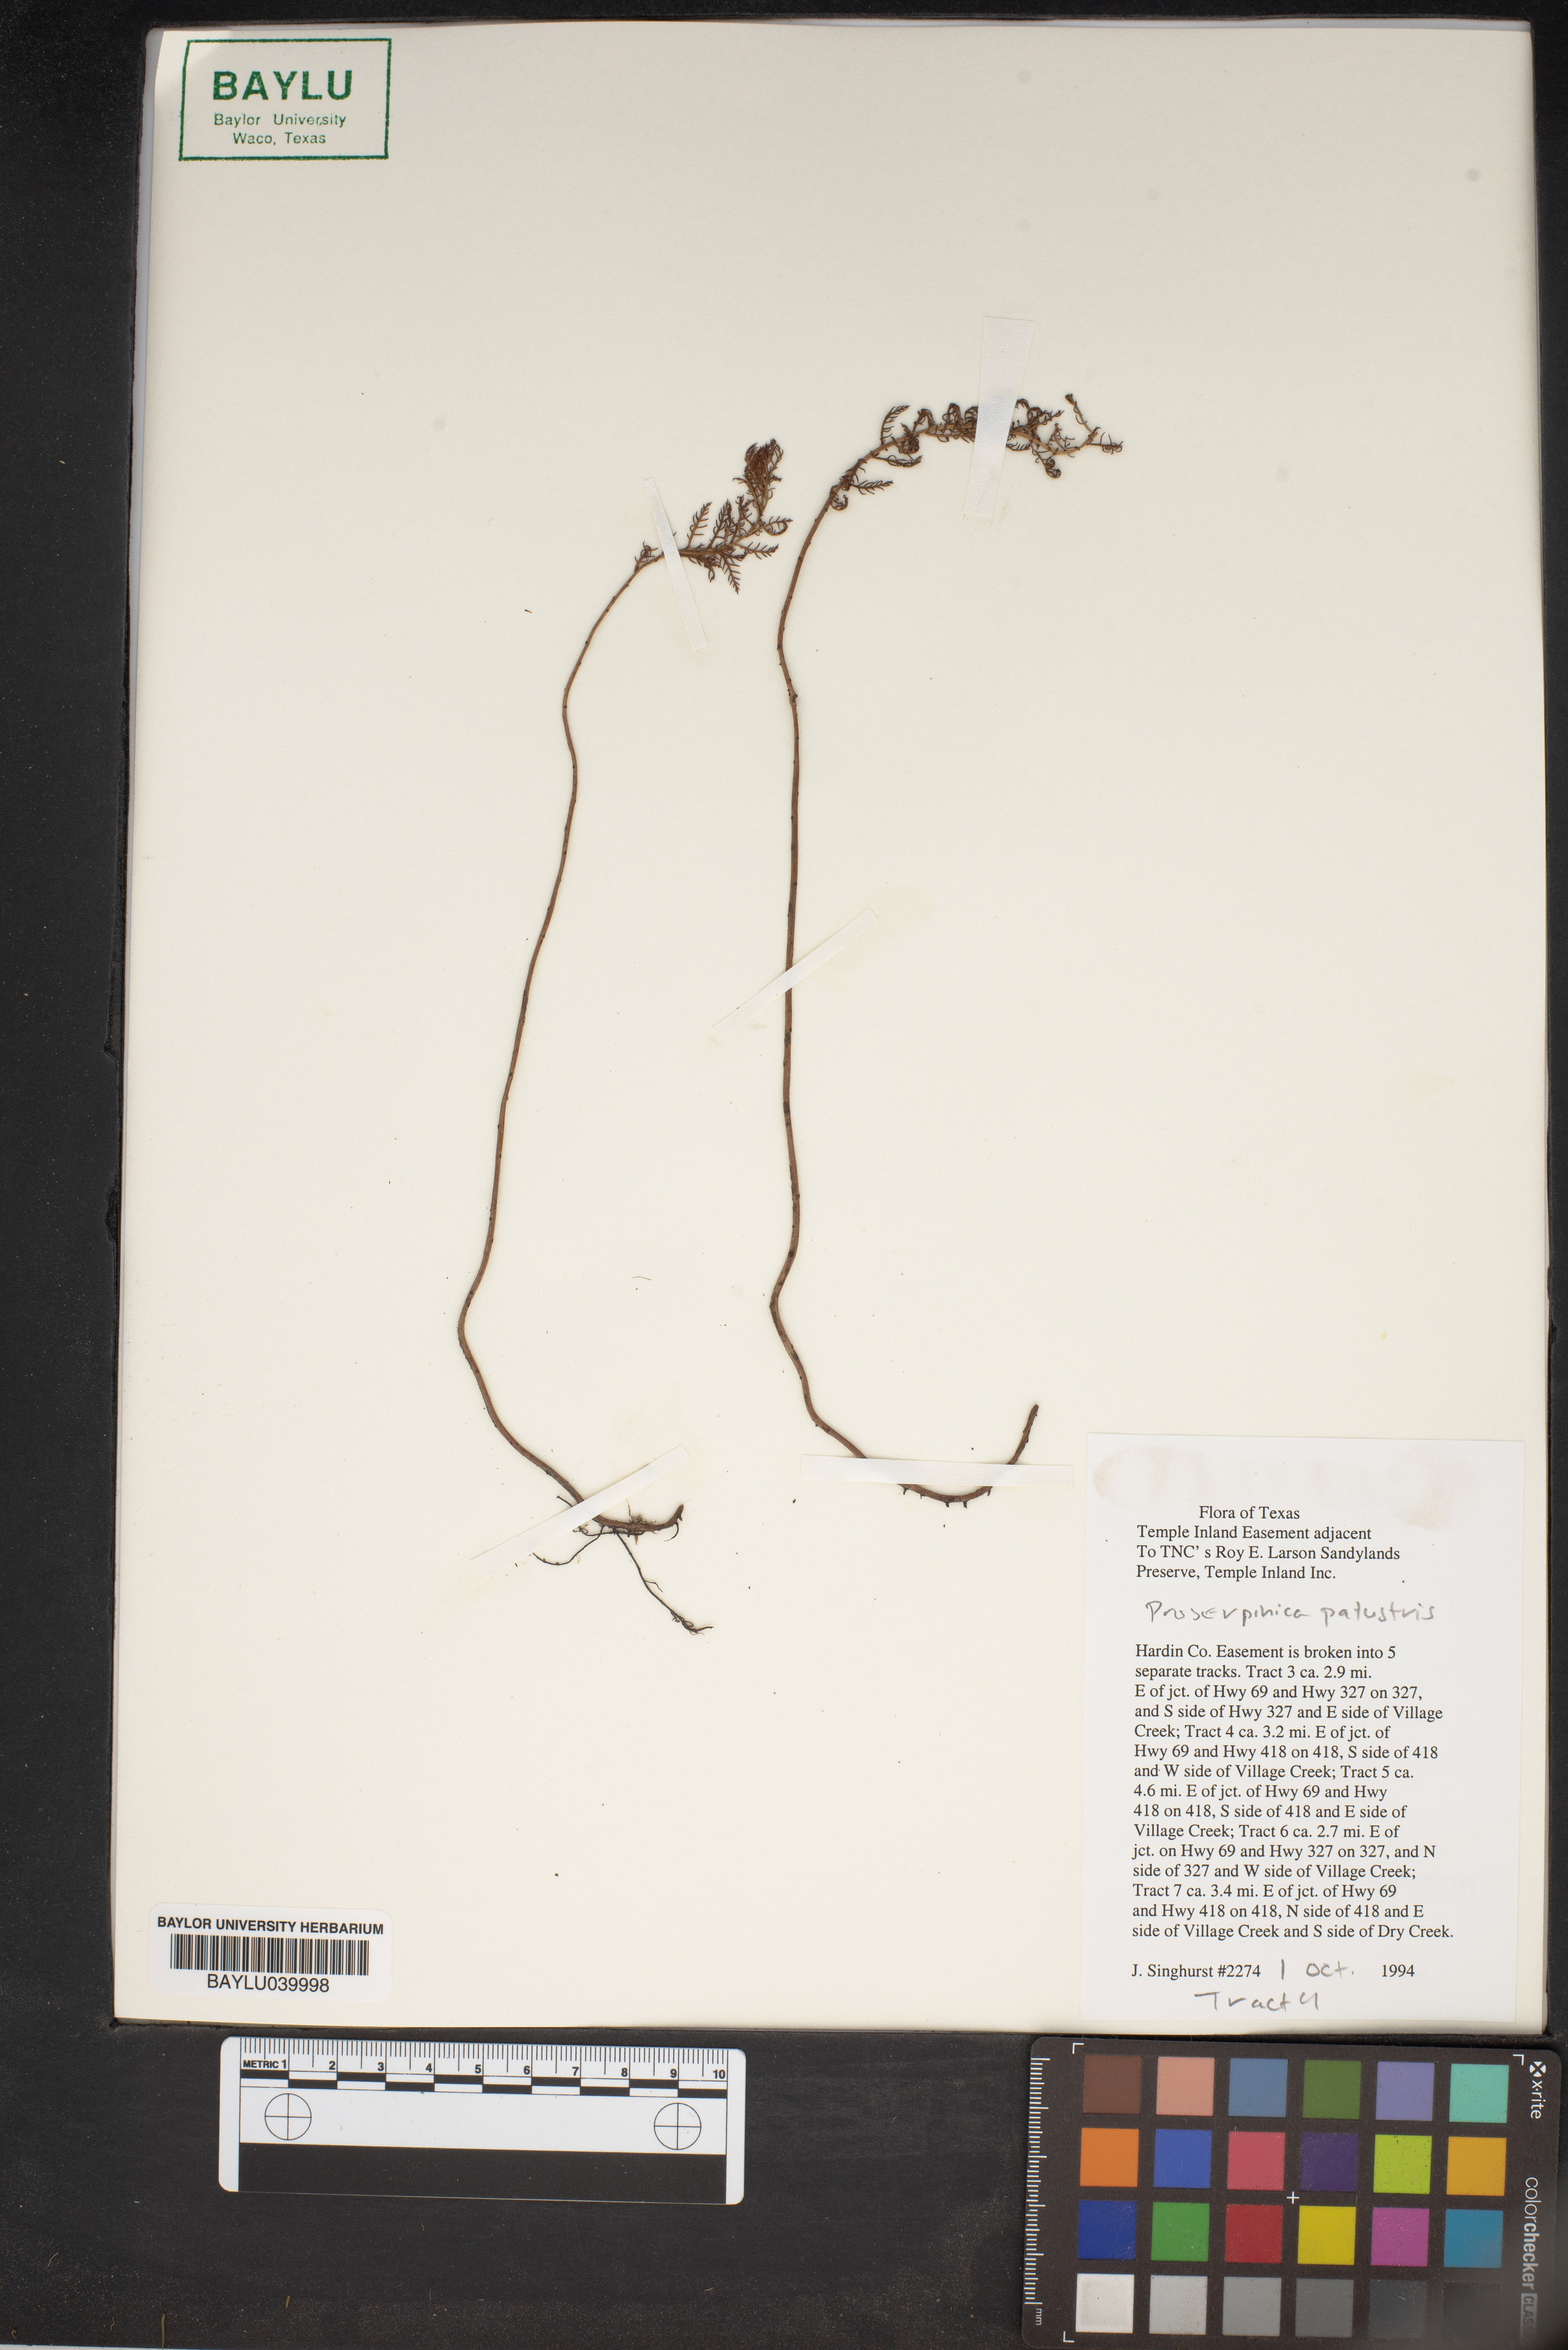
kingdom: Plantae
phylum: Tracheophyta
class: Magnoliopsida
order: Saxifragales
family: Haloragaceae
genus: Proserpinaca
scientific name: Proserpinaca palustris
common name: Marsh mermaidweed
